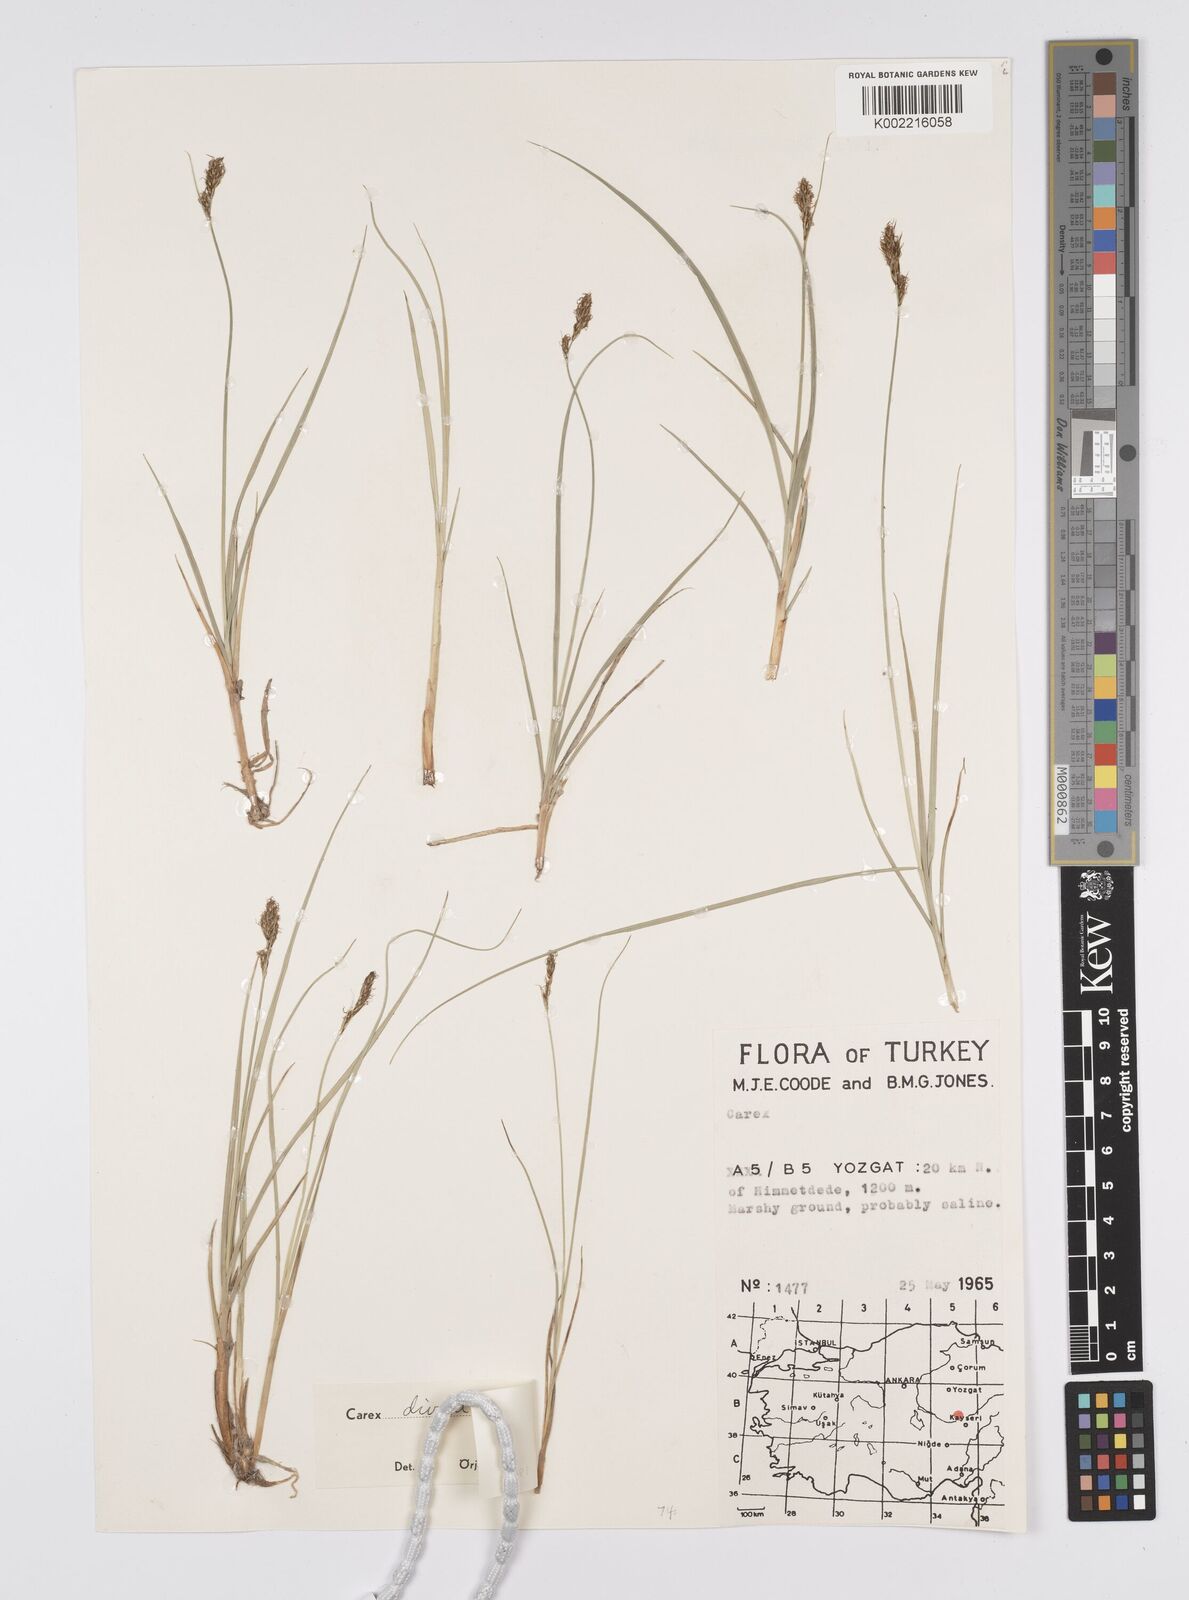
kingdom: Plantae
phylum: Tracheophyta
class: Liliopsida
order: Poales
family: Cyperaceae
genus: Carex
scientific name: Carex divisa
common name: Divided sedge
